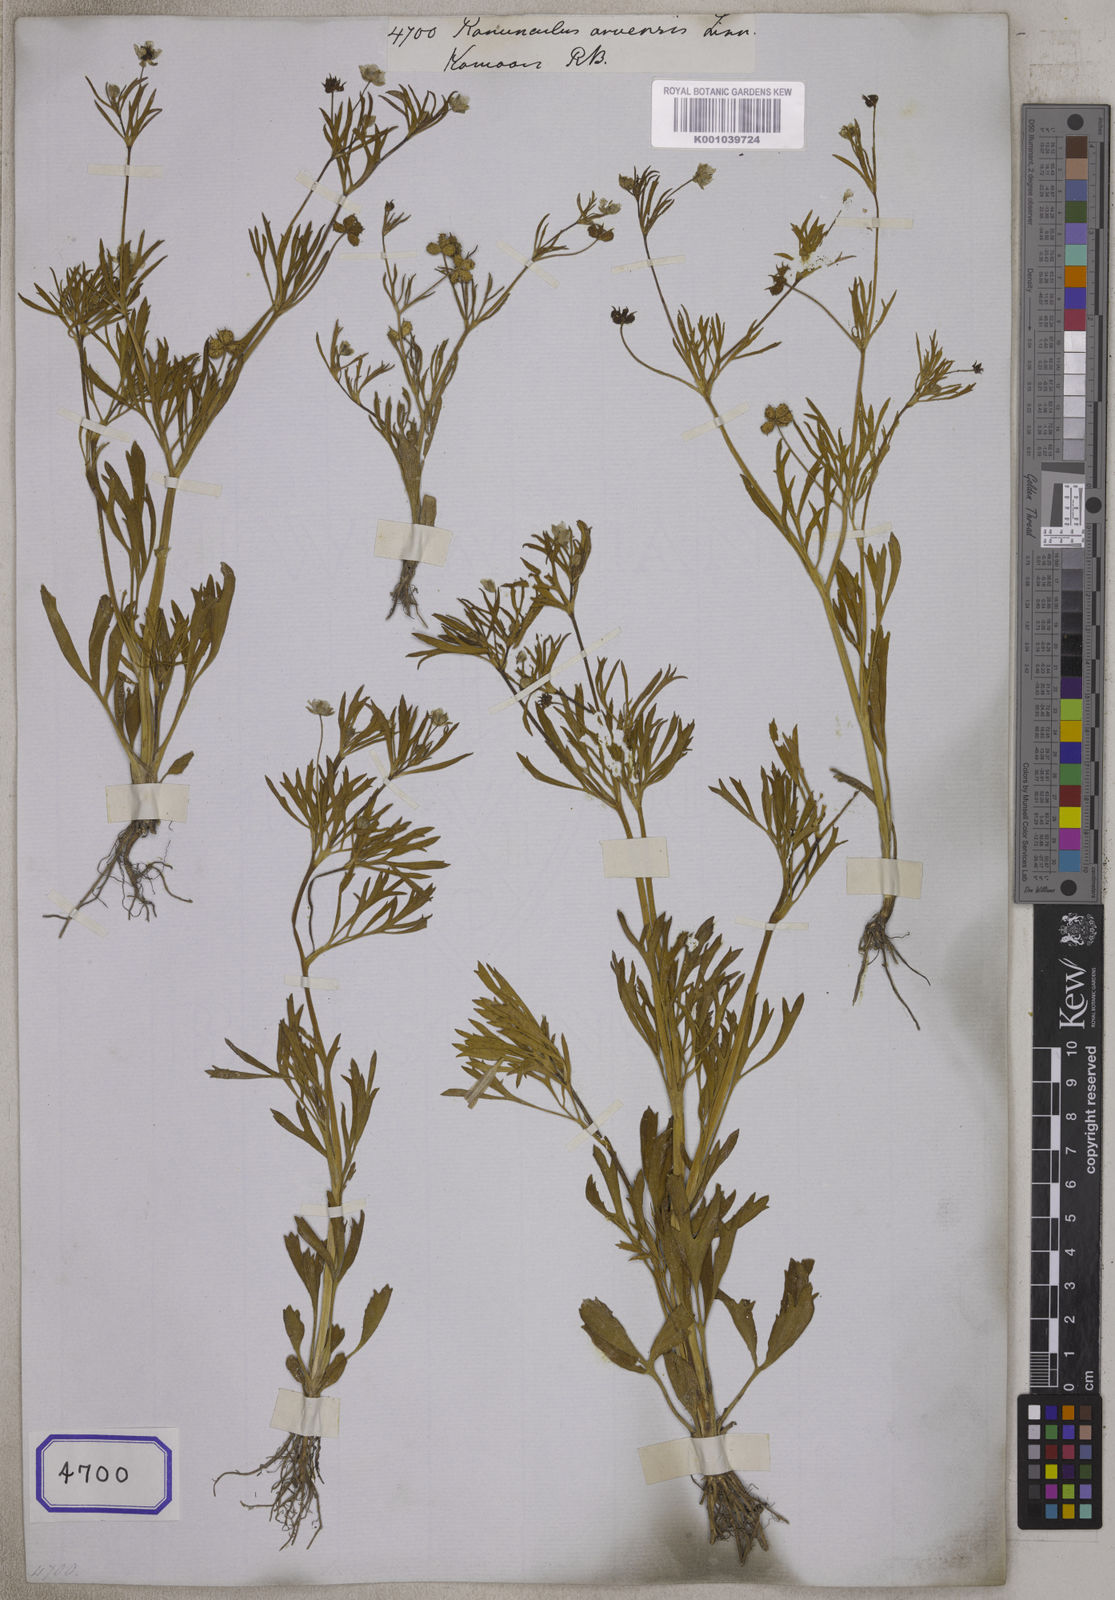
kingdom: Plantae
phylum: Tracheophyta
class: Magnoliopsida
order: Ranunculales
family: Ranunculaceae
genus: Ranunculus
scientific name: Ranunculus arvensis
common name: Corn buttercup
